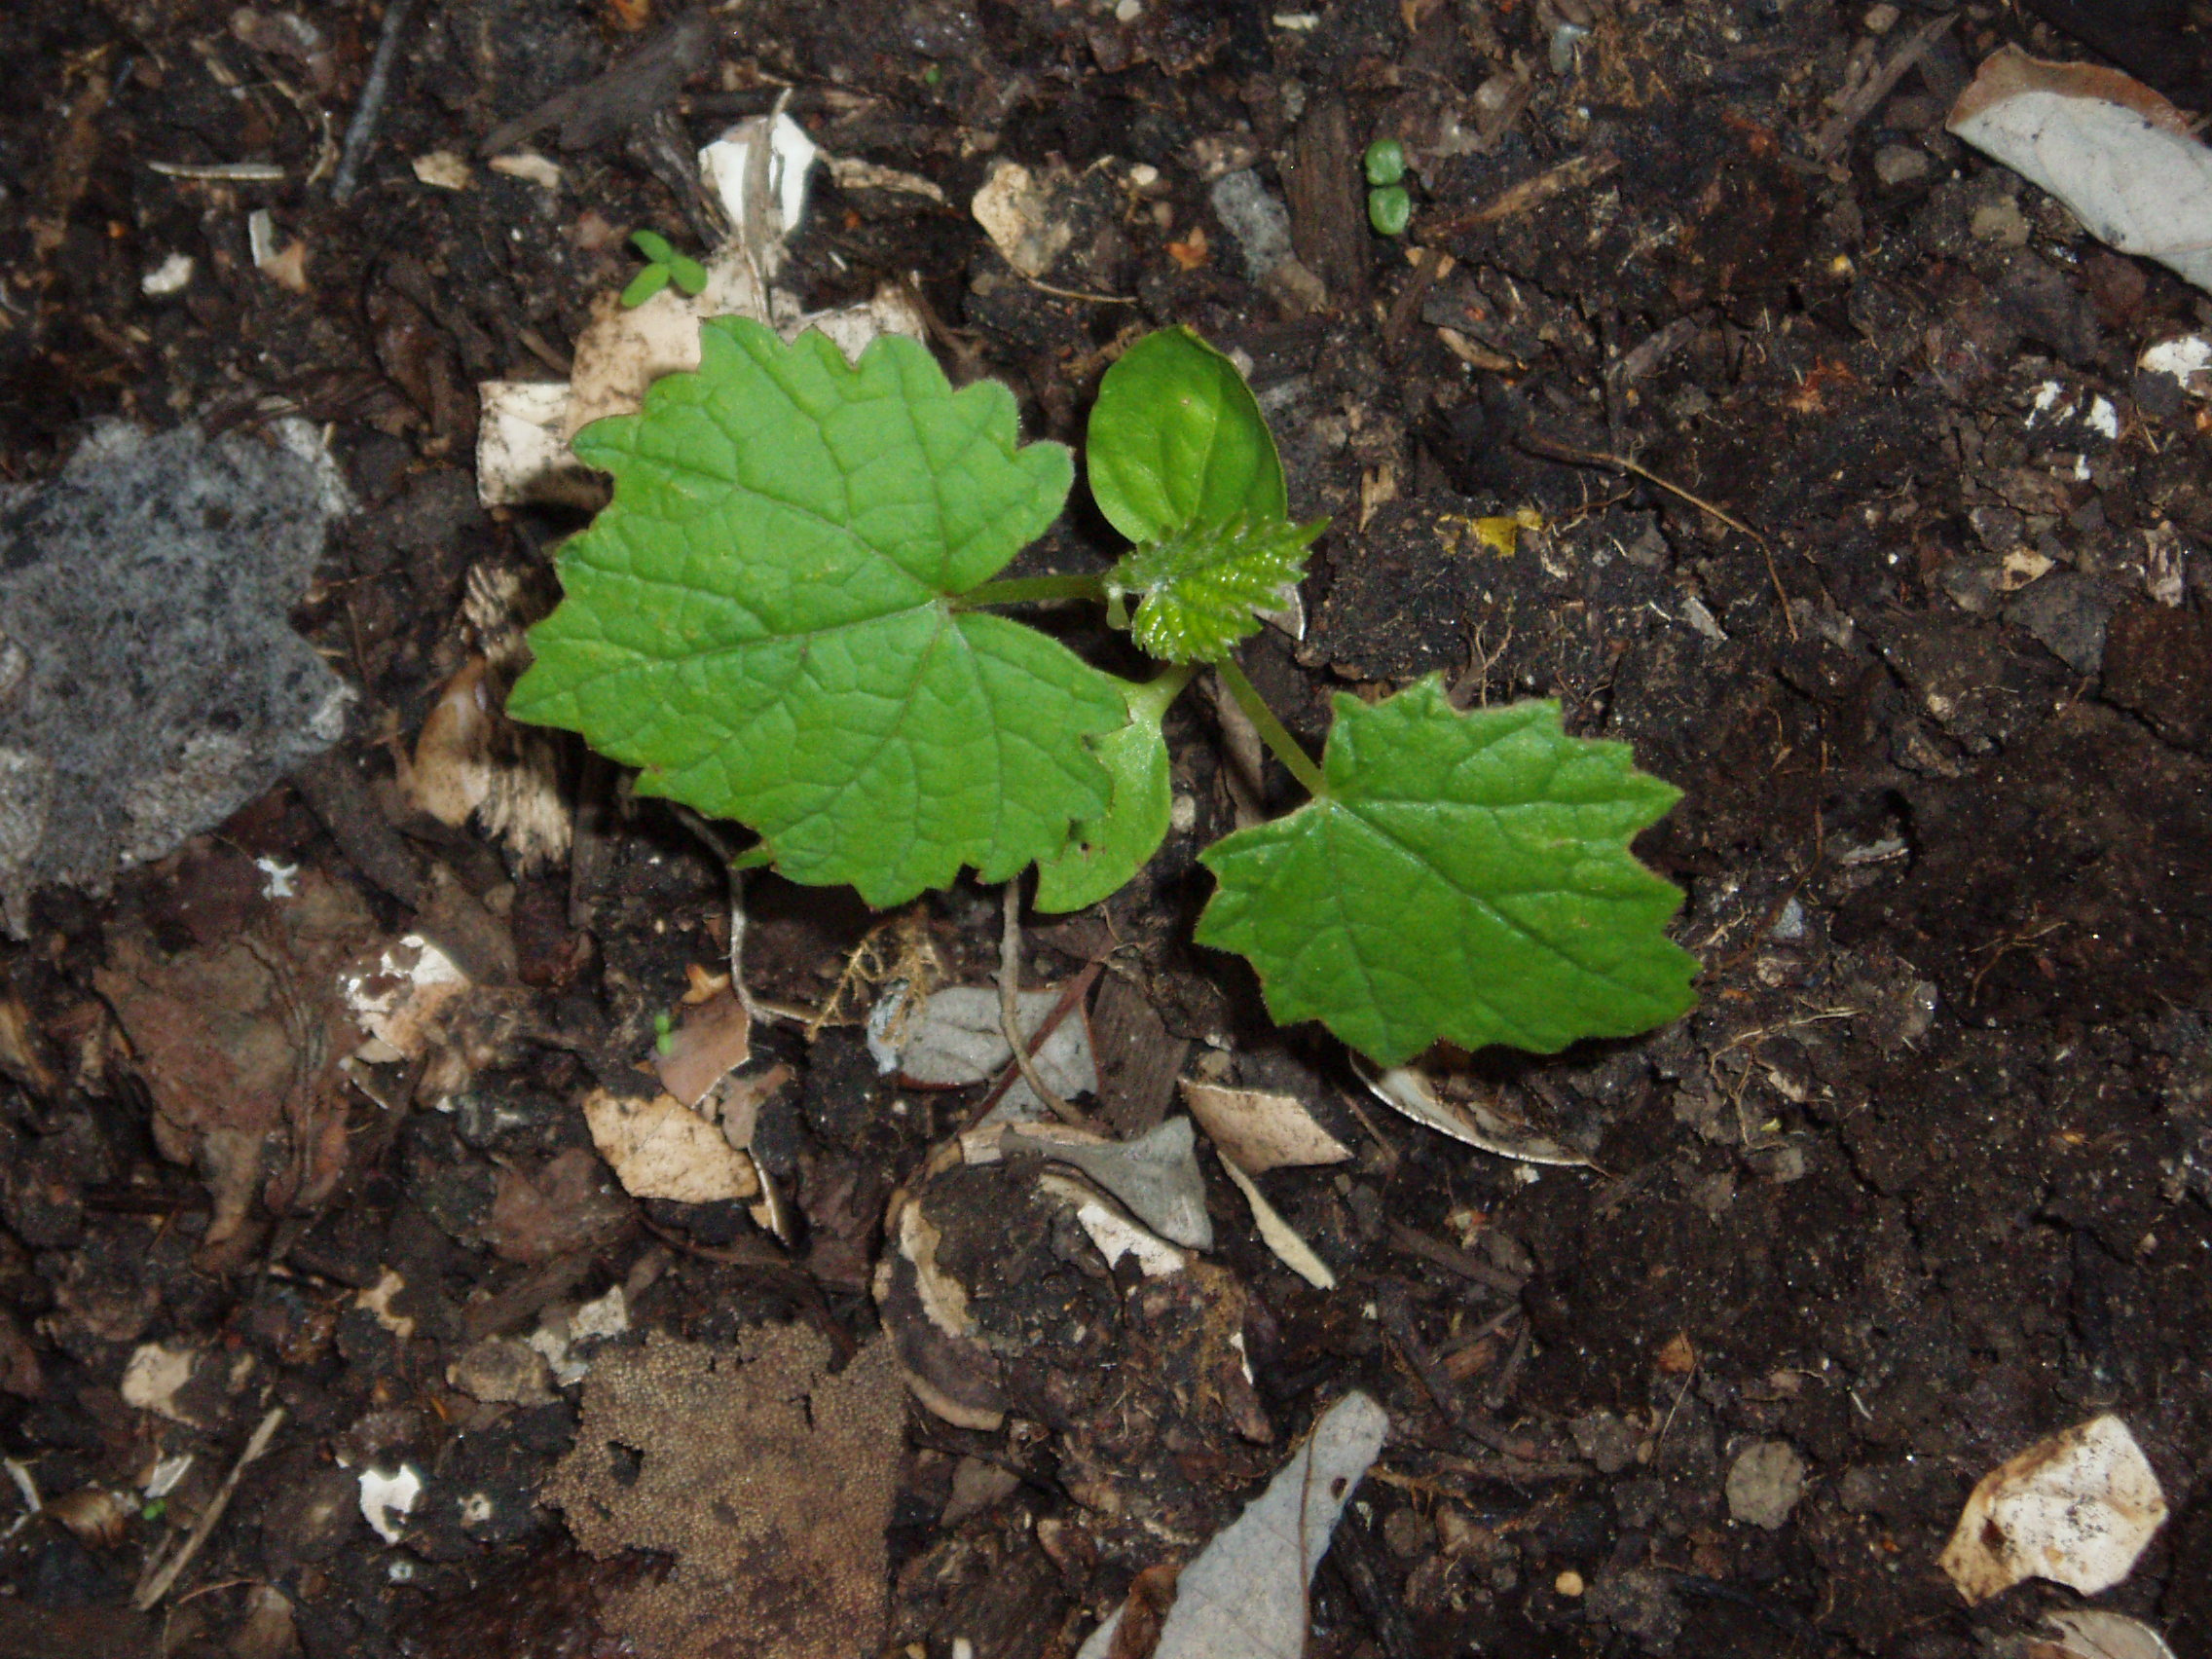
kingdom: Plantae
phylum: Tracheophyta
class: Magnoliopsida
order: Vitales
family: Vitaceae
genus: Vitis
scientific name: Vitis vinifera
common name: Grape-vine
